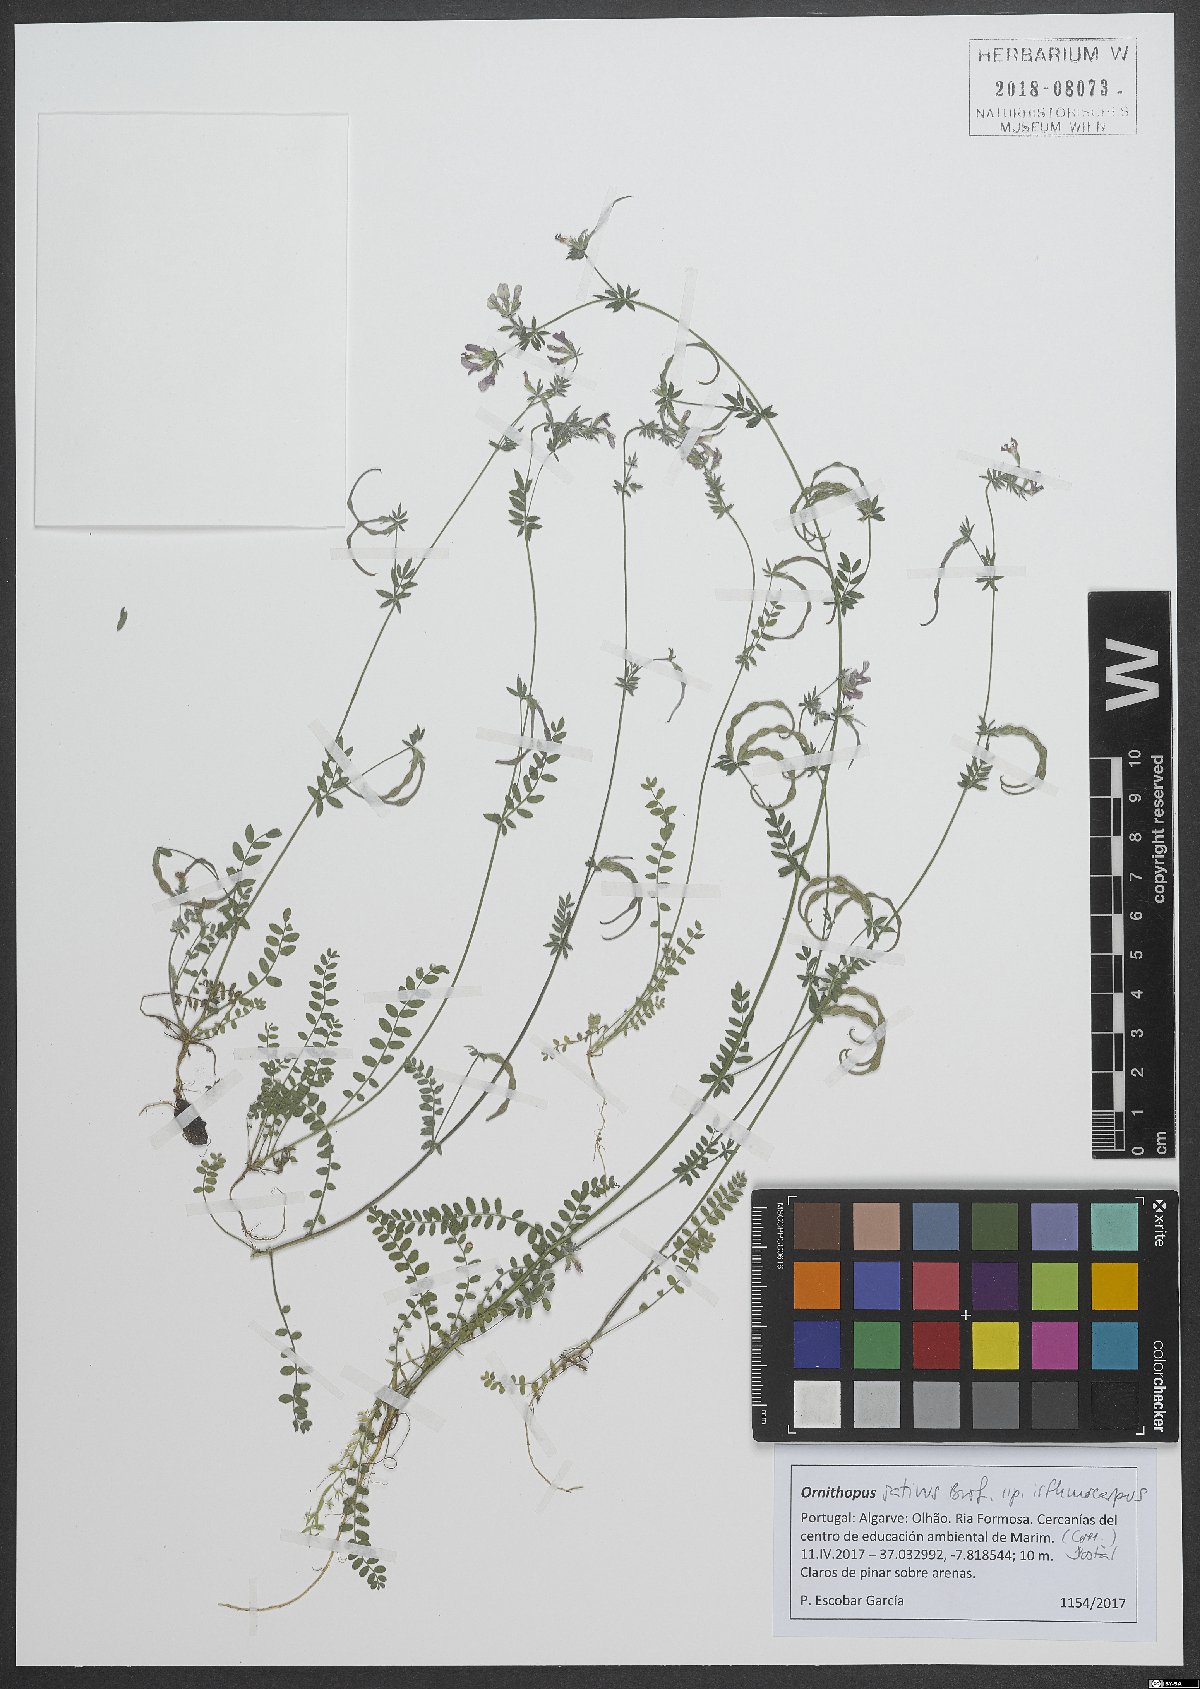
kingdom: Plantae
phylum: Tracheophyta
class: Magnoliopsida
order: Fabales
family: Fabaceae
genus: Ornithopus
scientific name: Ornithopus sativus
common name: Serradella
